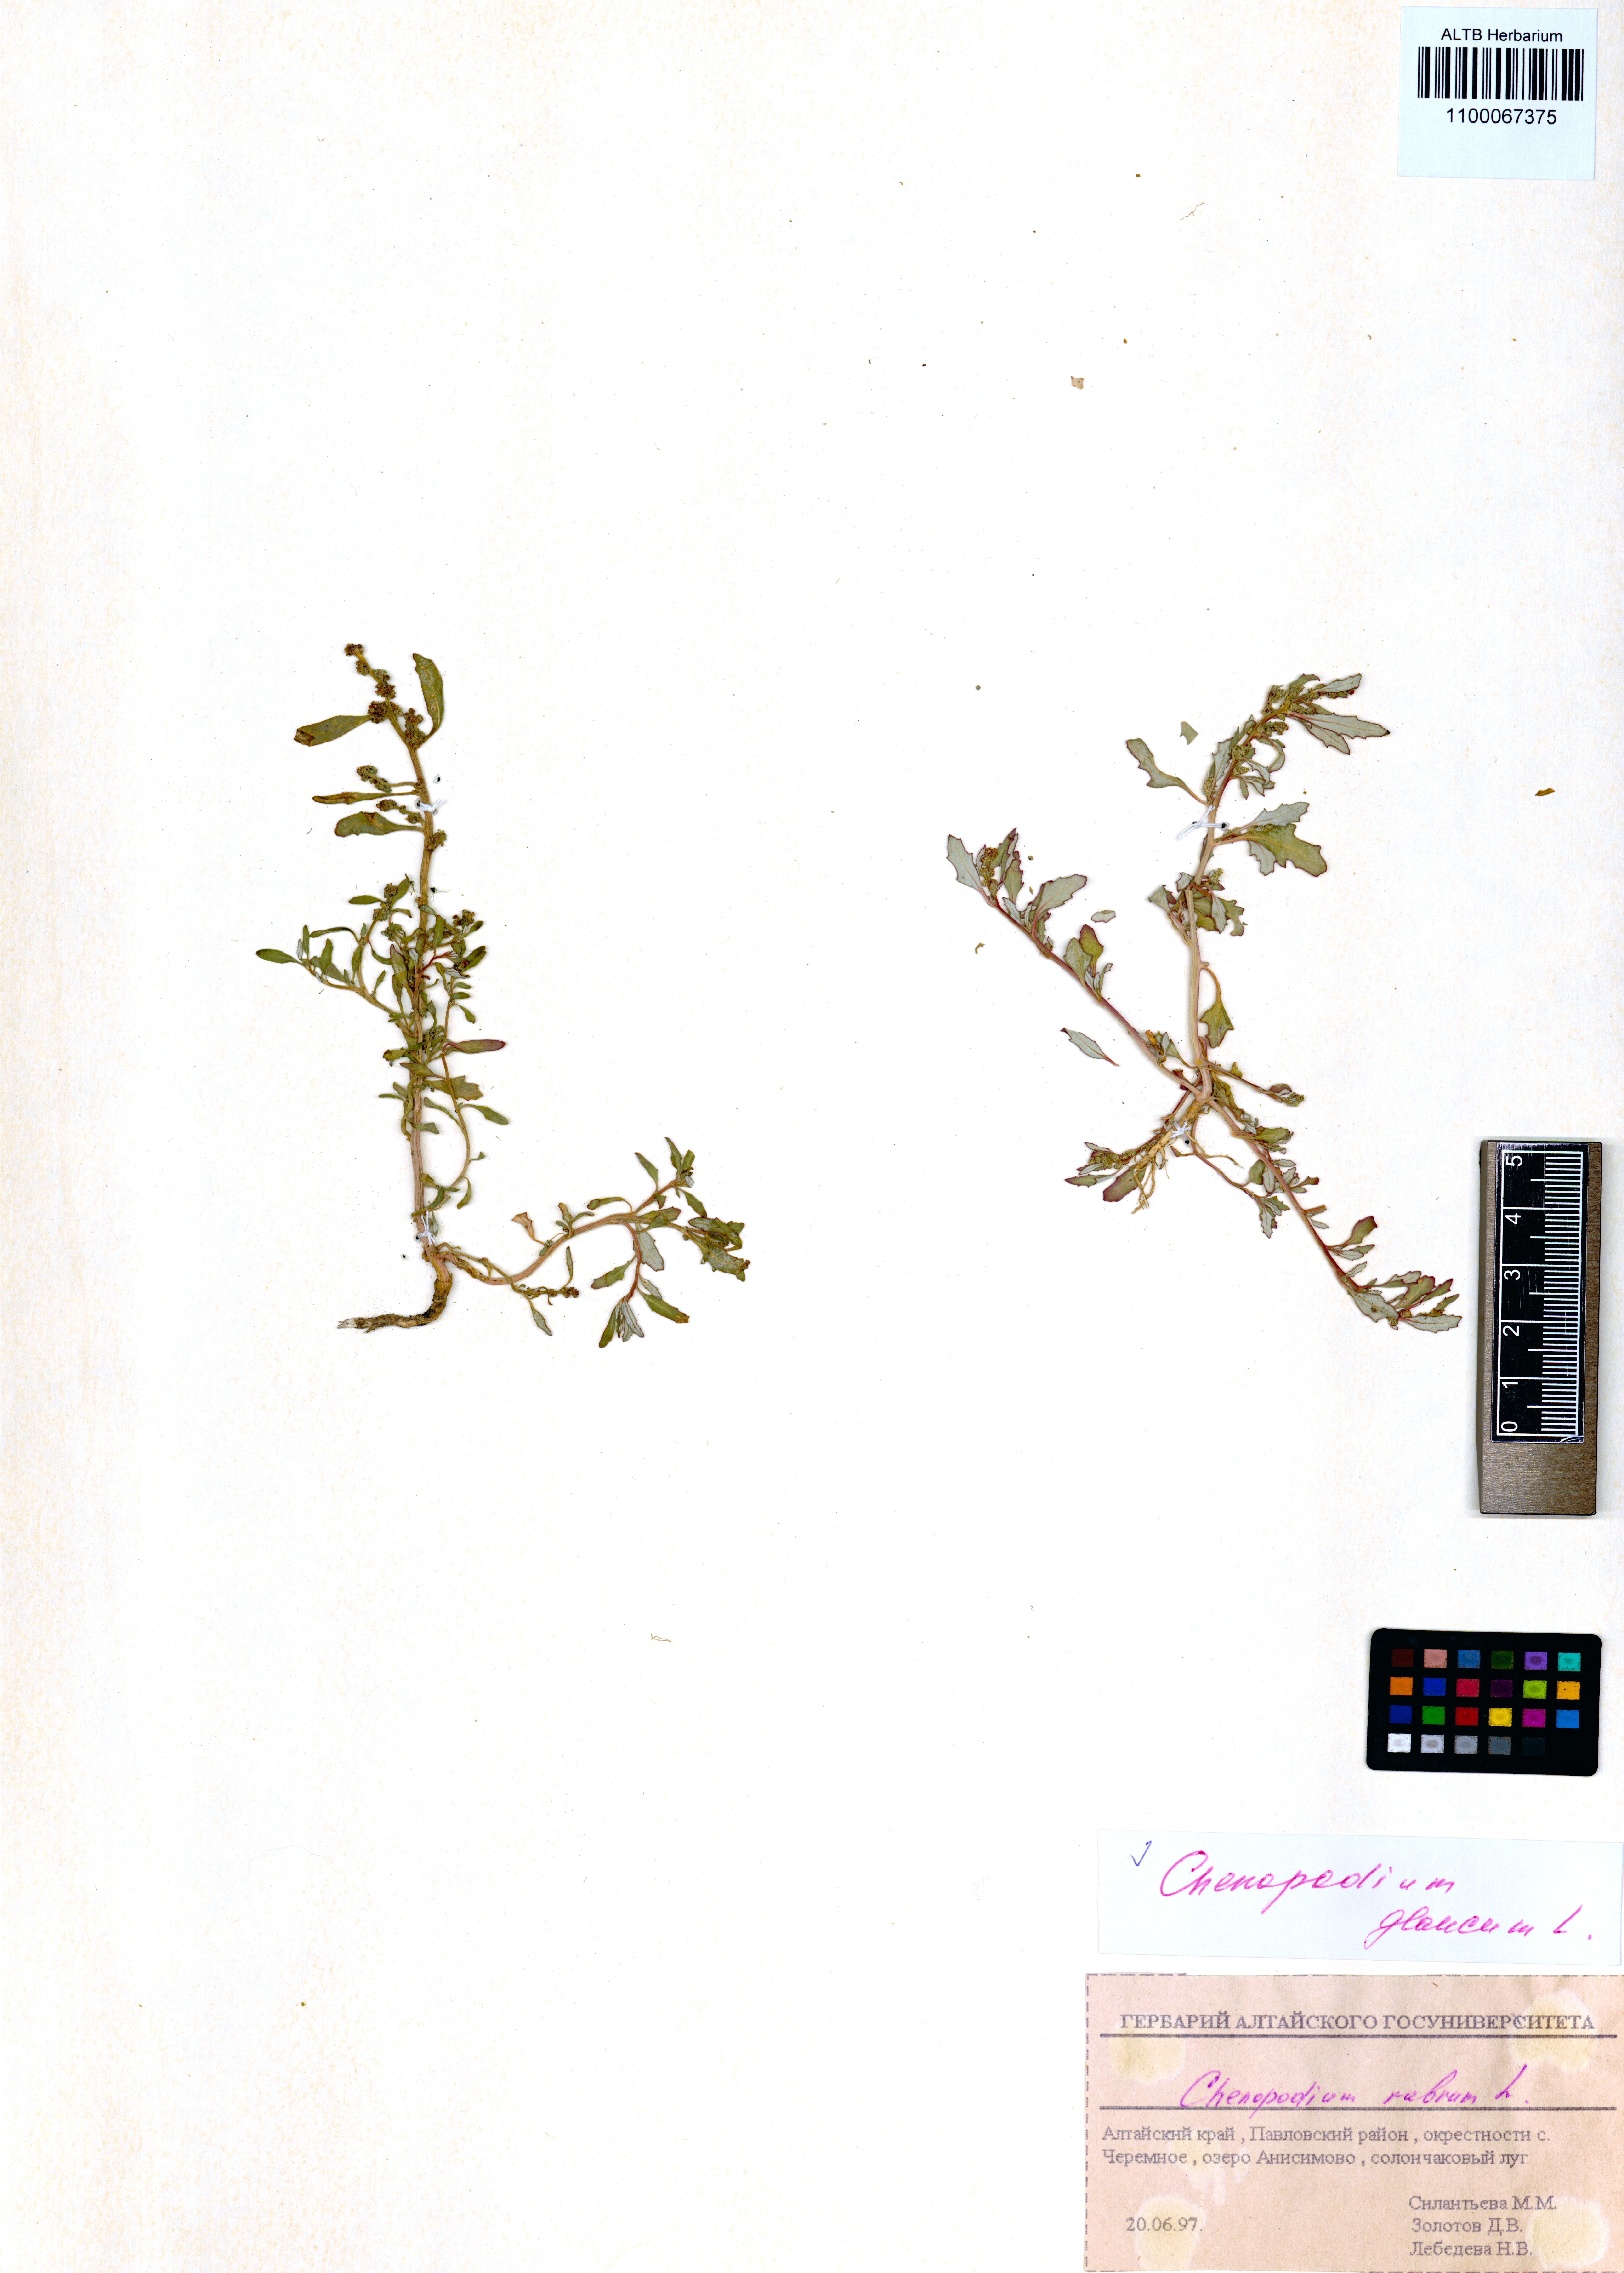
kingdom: Plantae
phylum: Tracheophyta
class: Magnoliopsida
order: Caryophyllales
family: Amaranthaceae
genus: Oxybasis
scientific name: Oxybasis glauca
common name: Glaucous goosefoot
